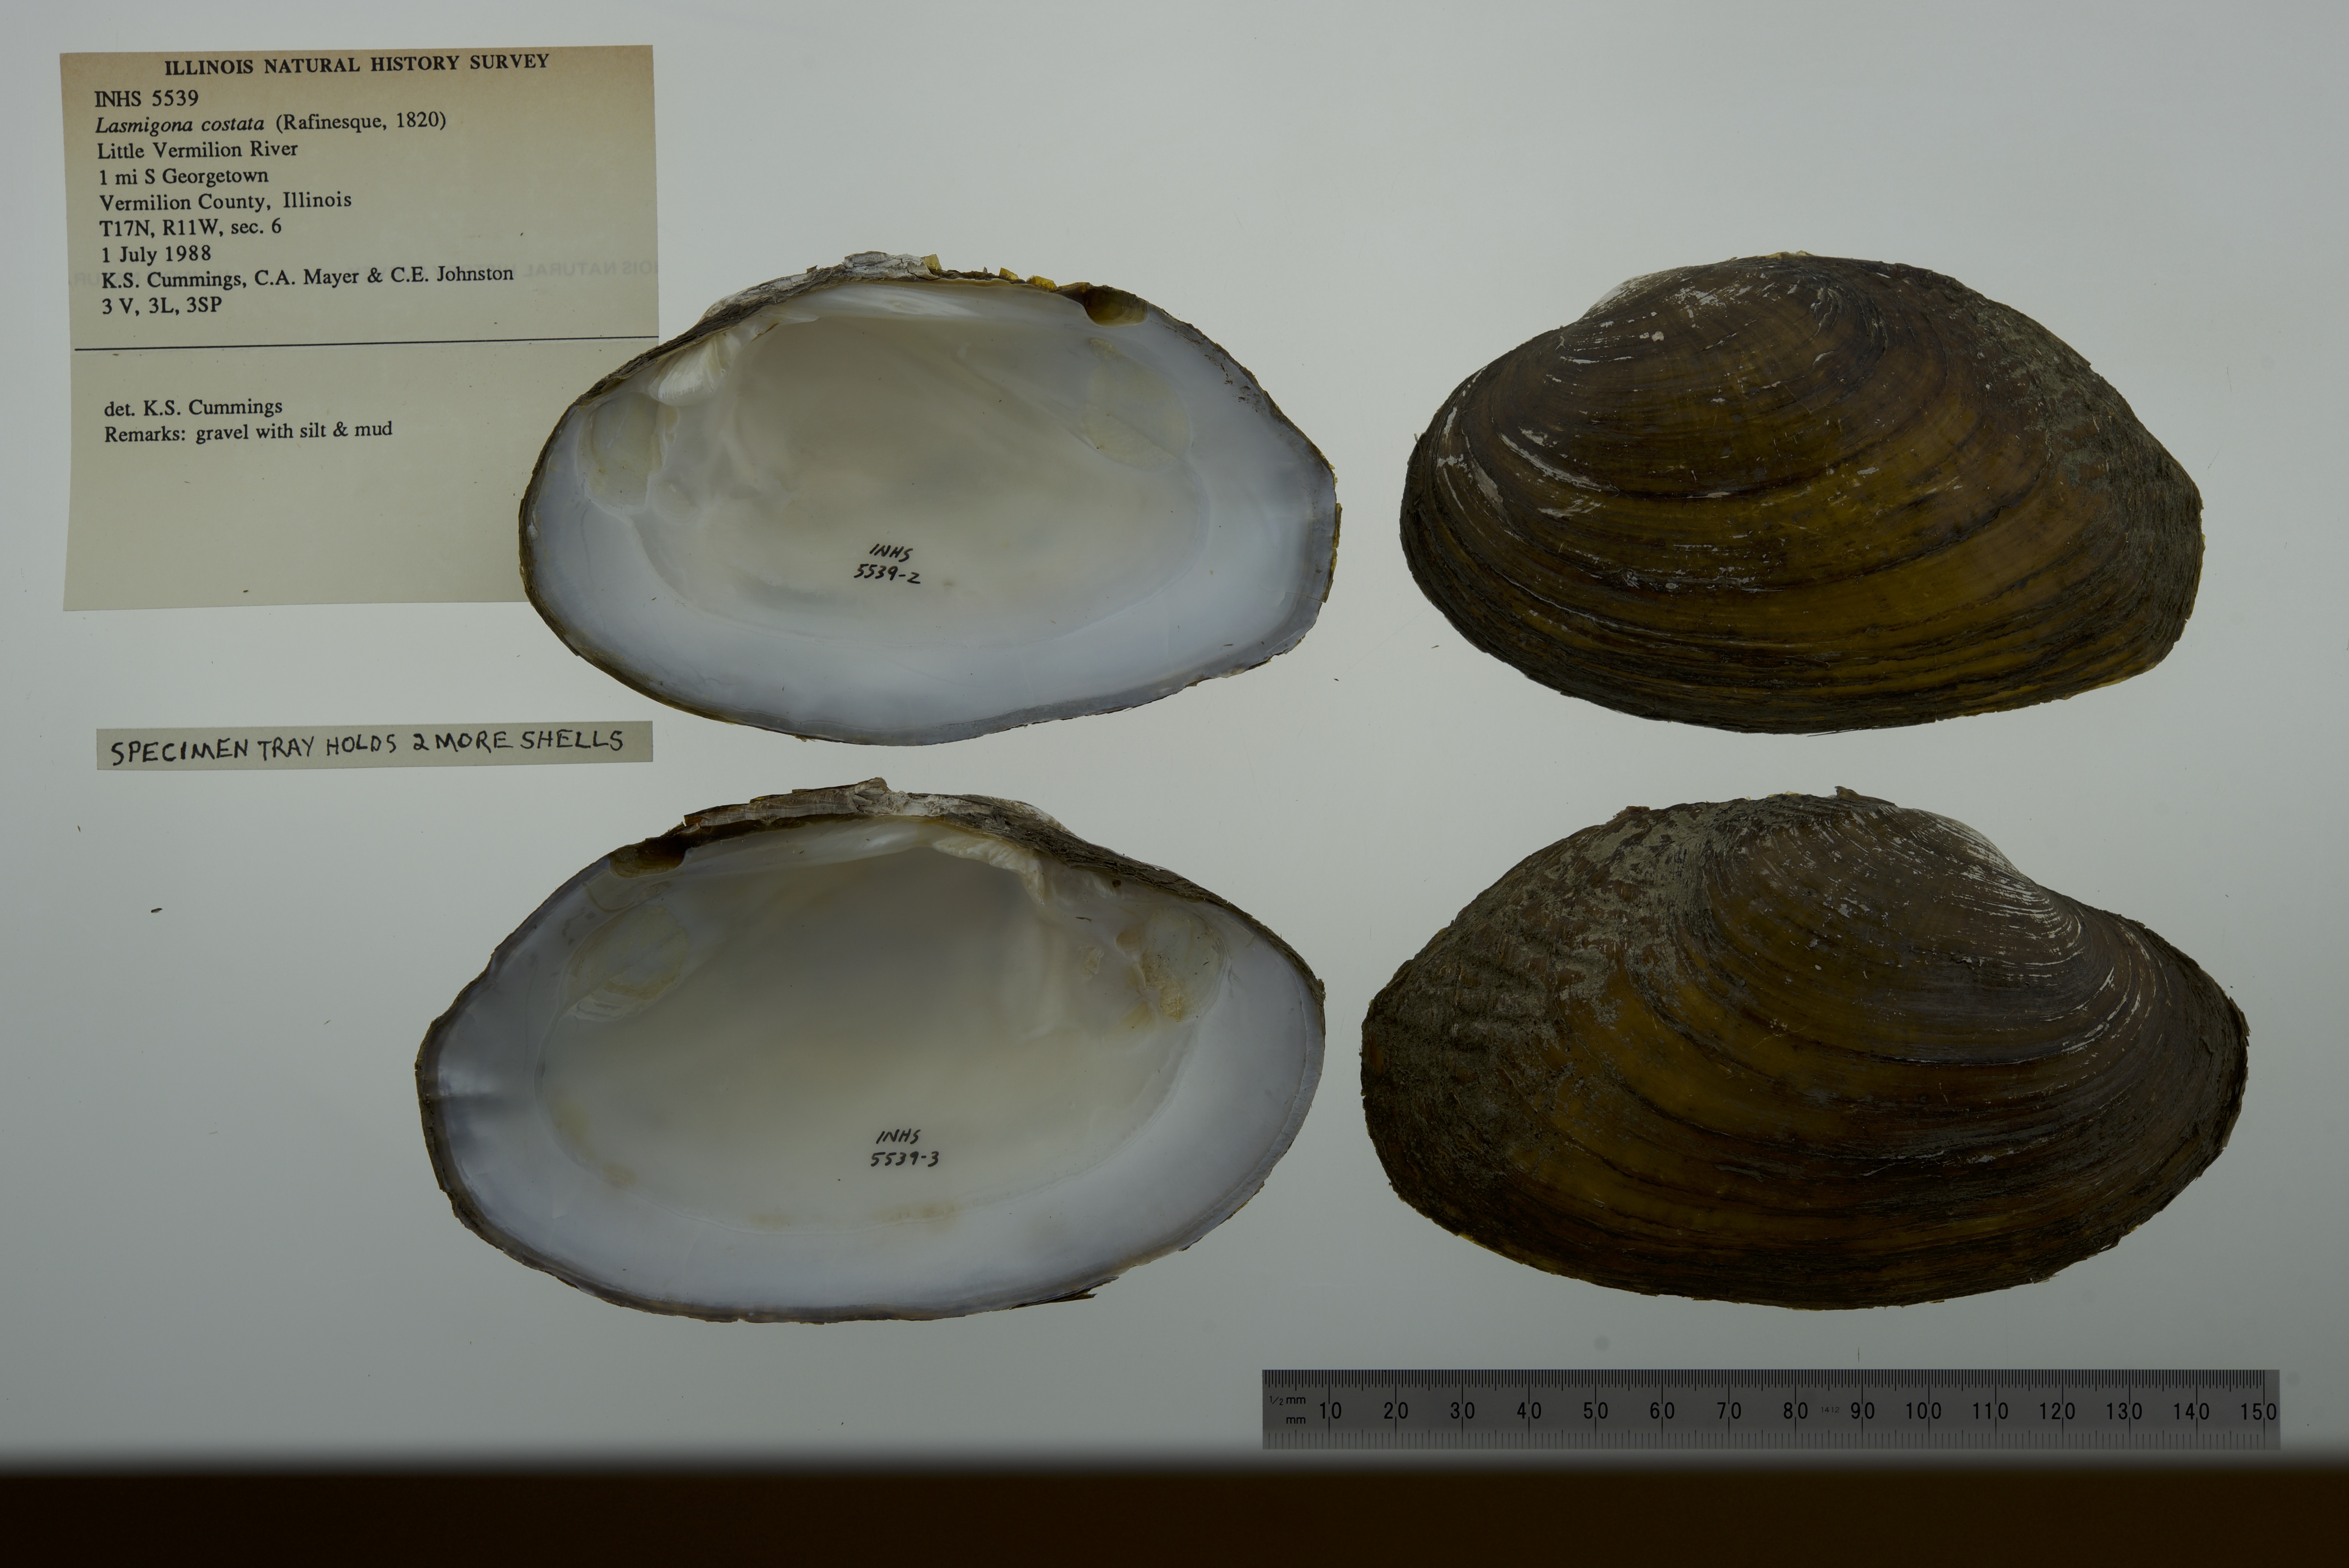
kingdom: Animalia
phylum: Mollusca
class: Bivalvia
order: Unionida
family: Unionidae
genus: Lasmigona
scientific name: Lasmigona costata
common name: Flutedshell
